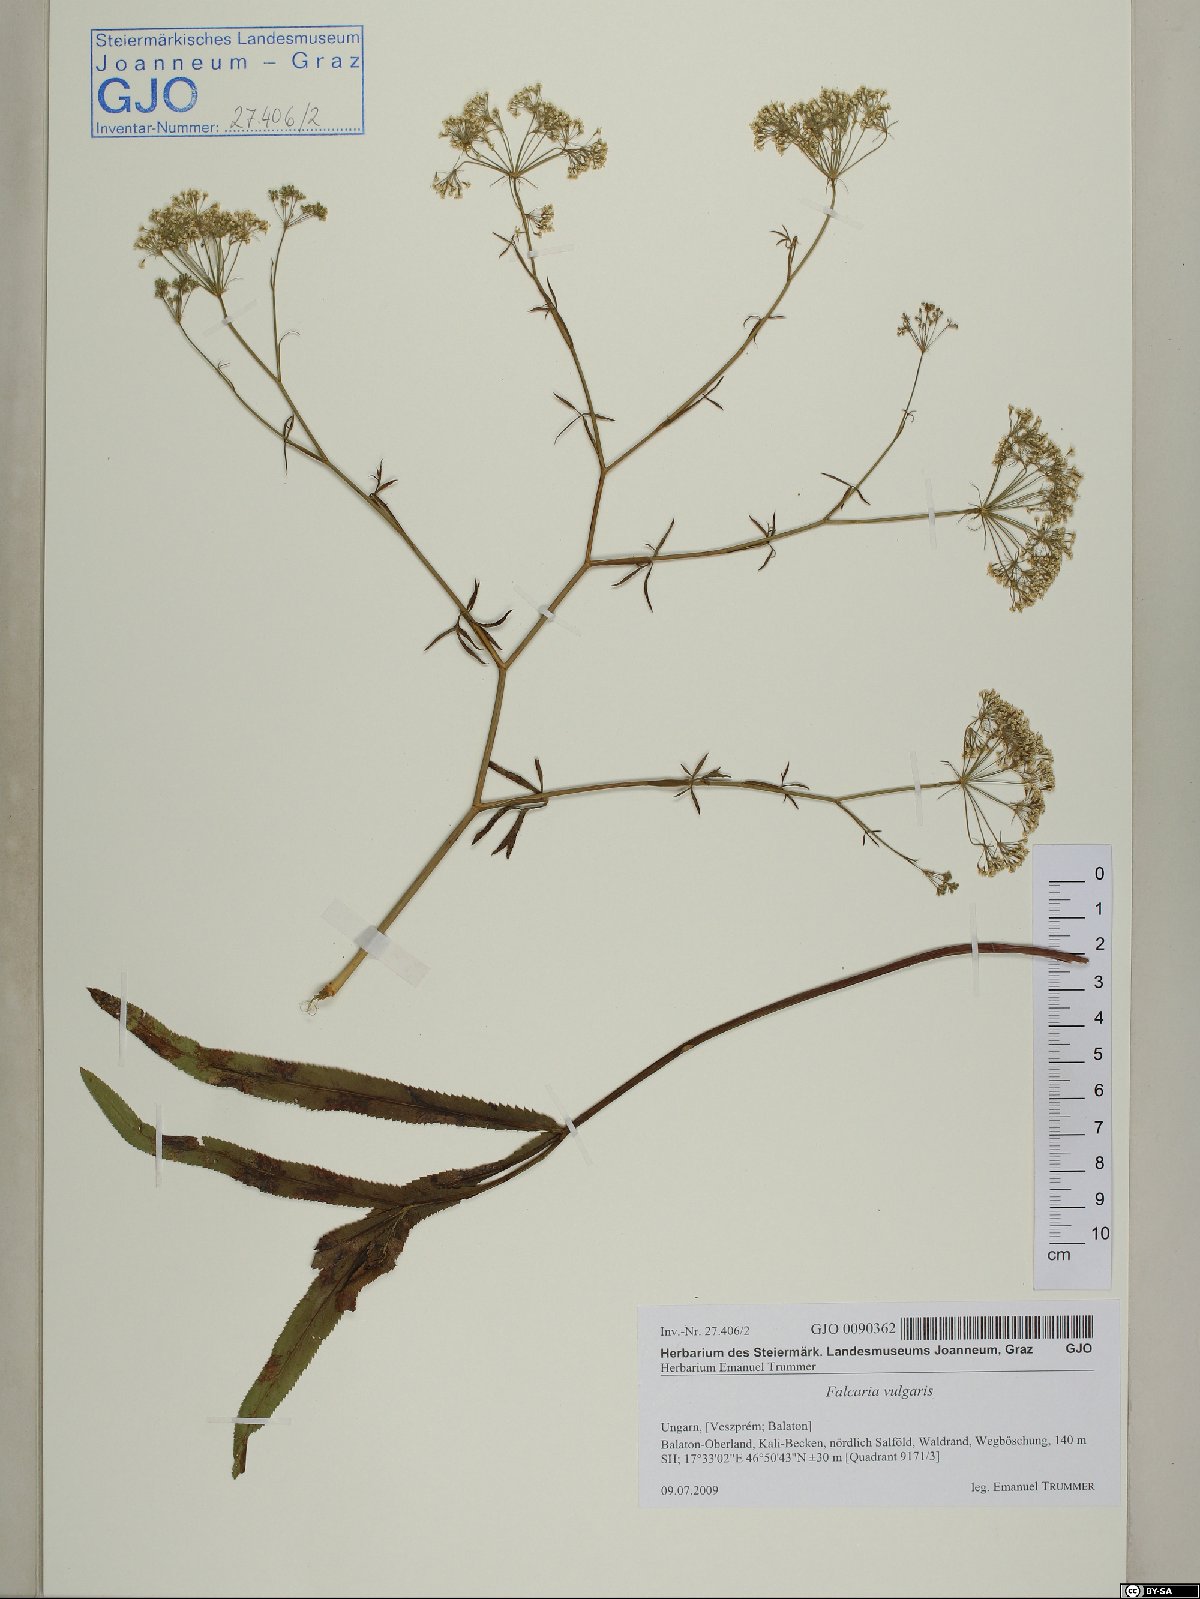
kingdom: Plantae
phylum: Tracheophyta
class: Magnoliopsida
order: Apiales
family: Apiaceae
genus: Falcaria
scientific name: Falcaria vulgaris
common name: Longleaf
